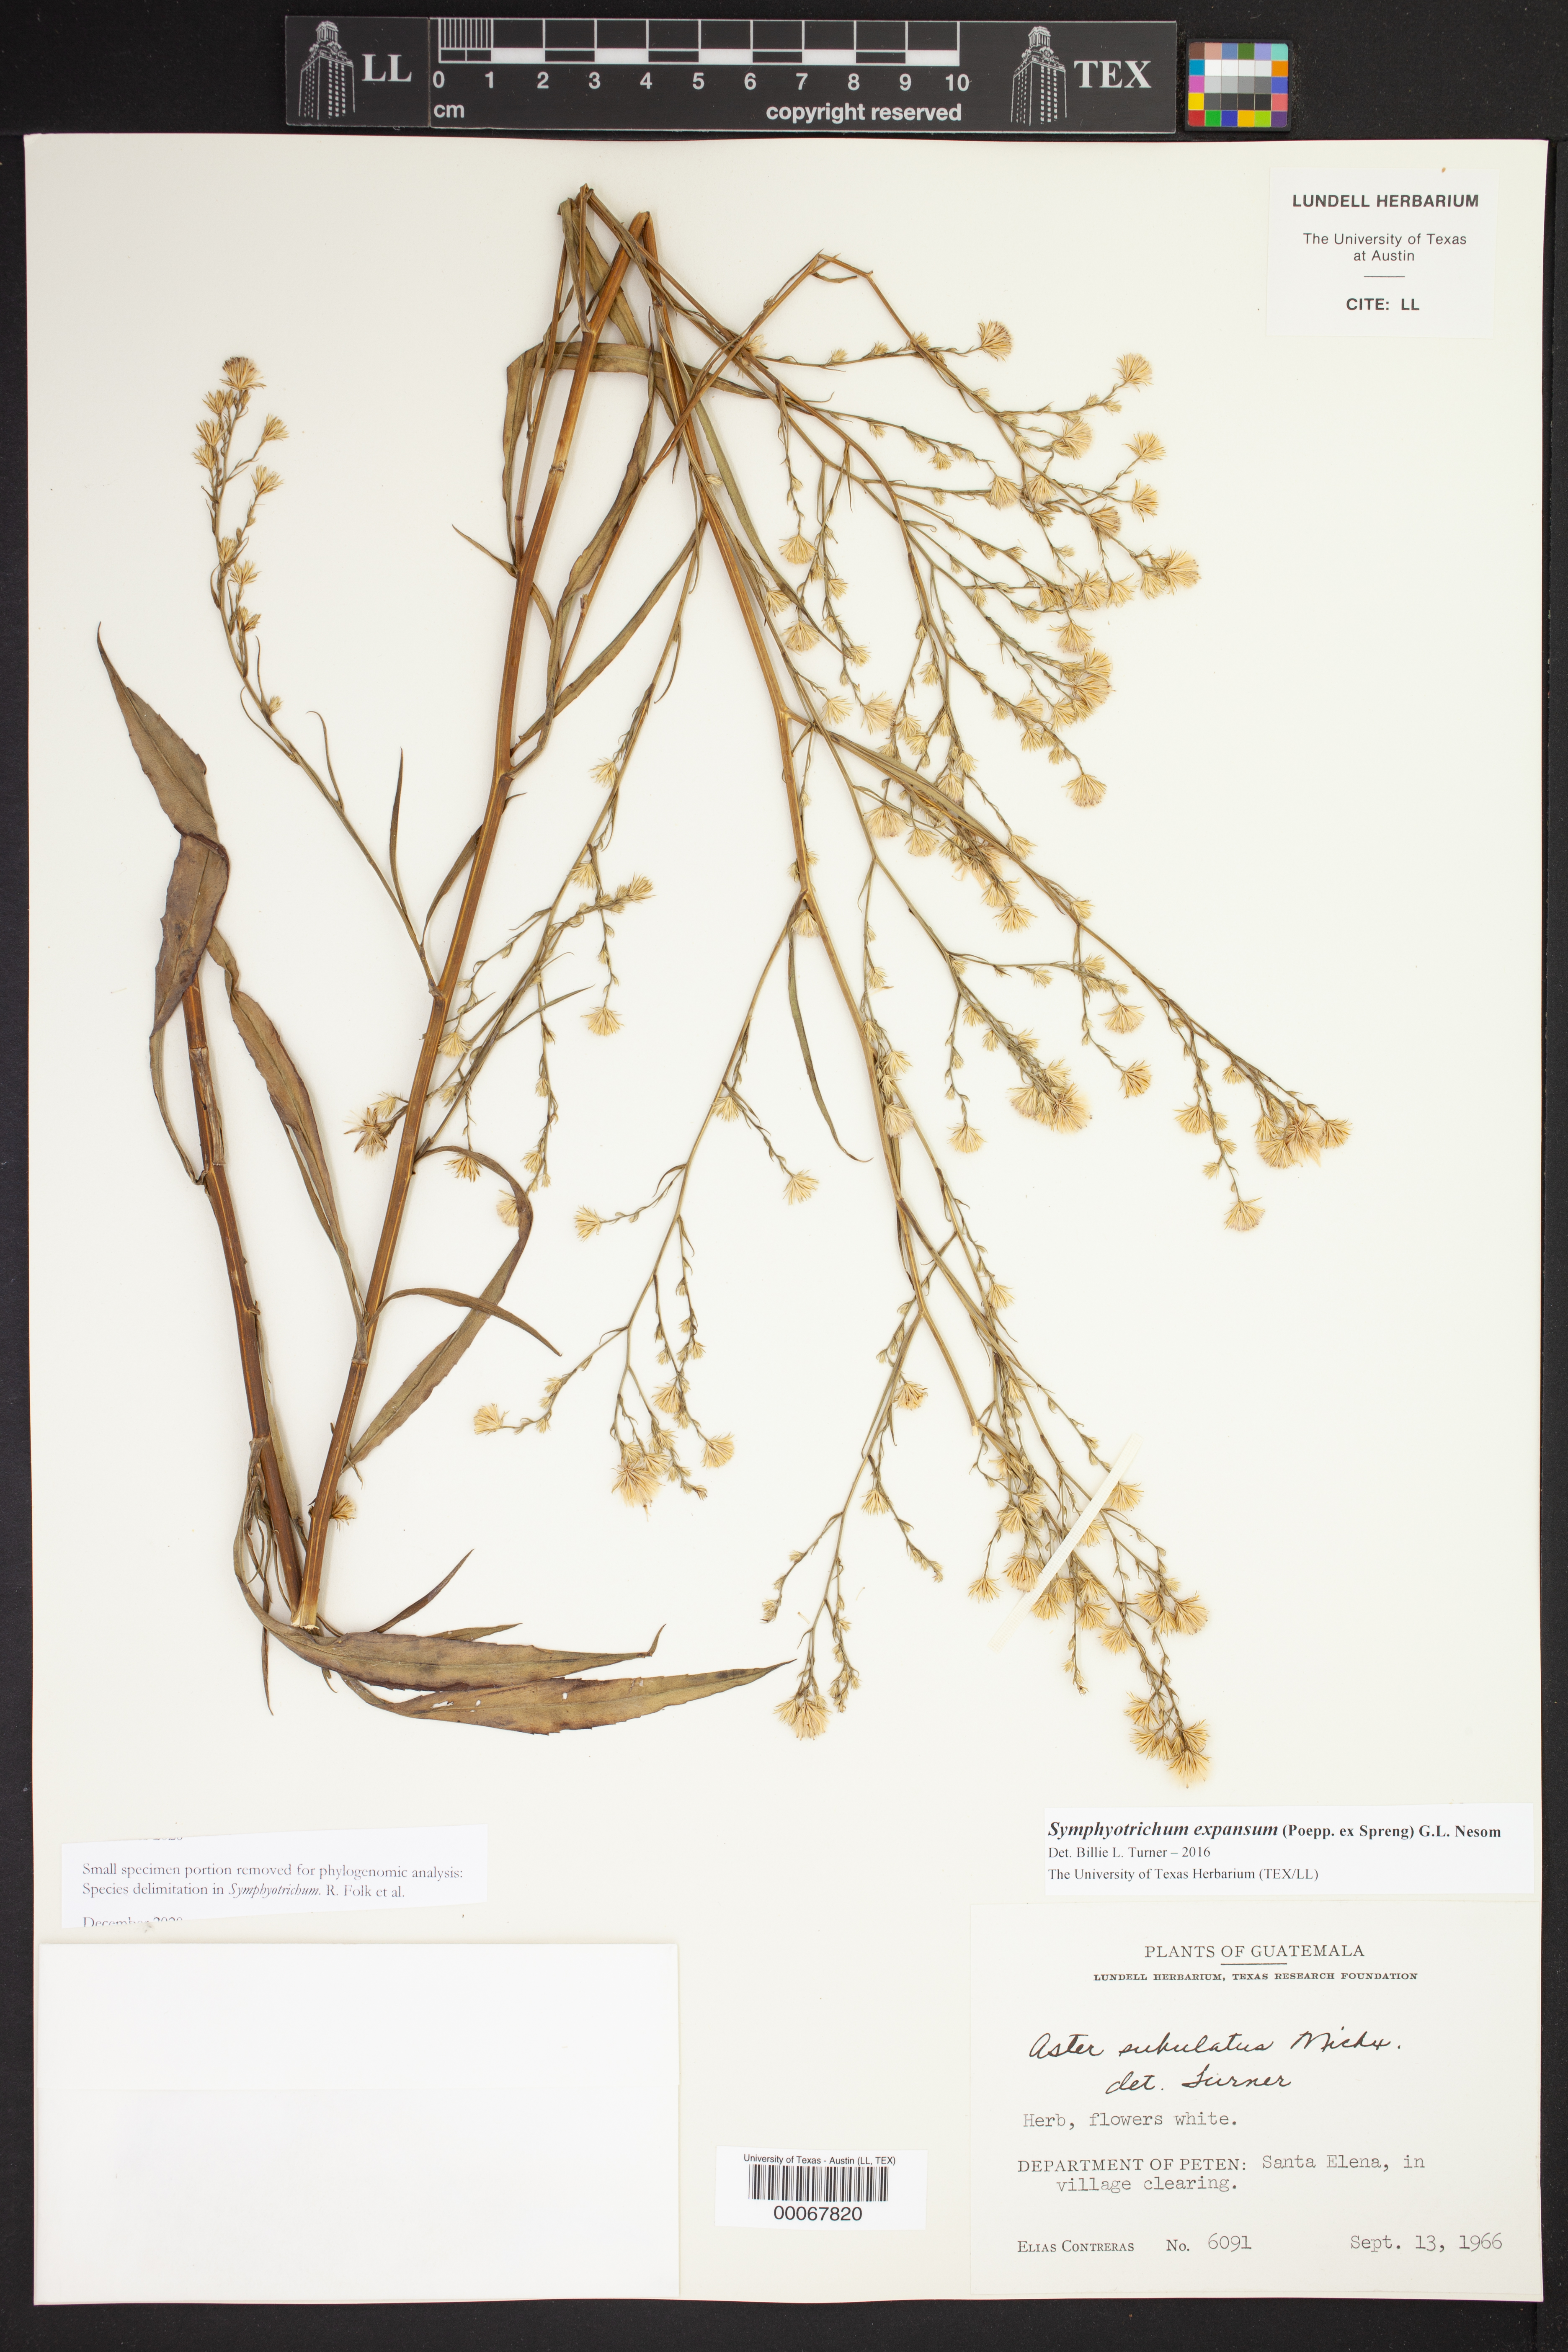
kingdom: Plantae
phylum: Tracheophyta
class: Magnoliopsida
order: Asterales
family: Asteraceae
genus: Symphyotrichum
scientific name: Symphyotrichum expansum
